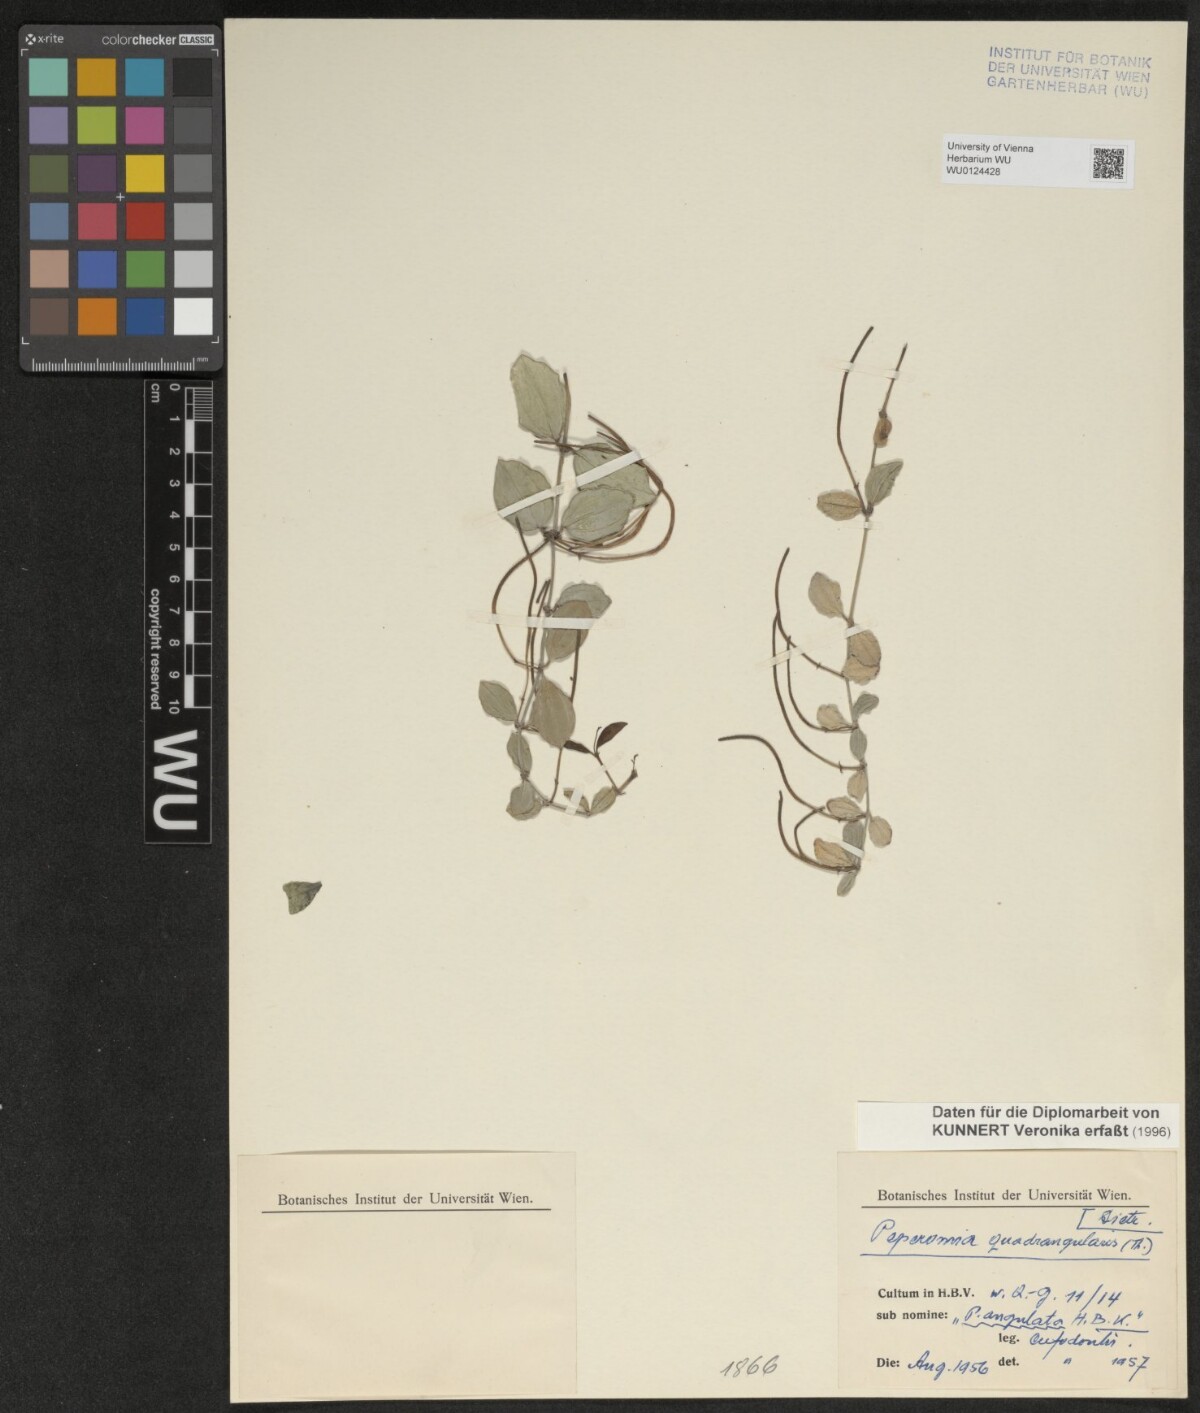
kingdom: Plantae
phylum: Tracheophyta
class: Magnoliopsida
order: Piperales
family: Piperaceae
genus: Peperomia
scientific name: Peperomia quadrangularis
